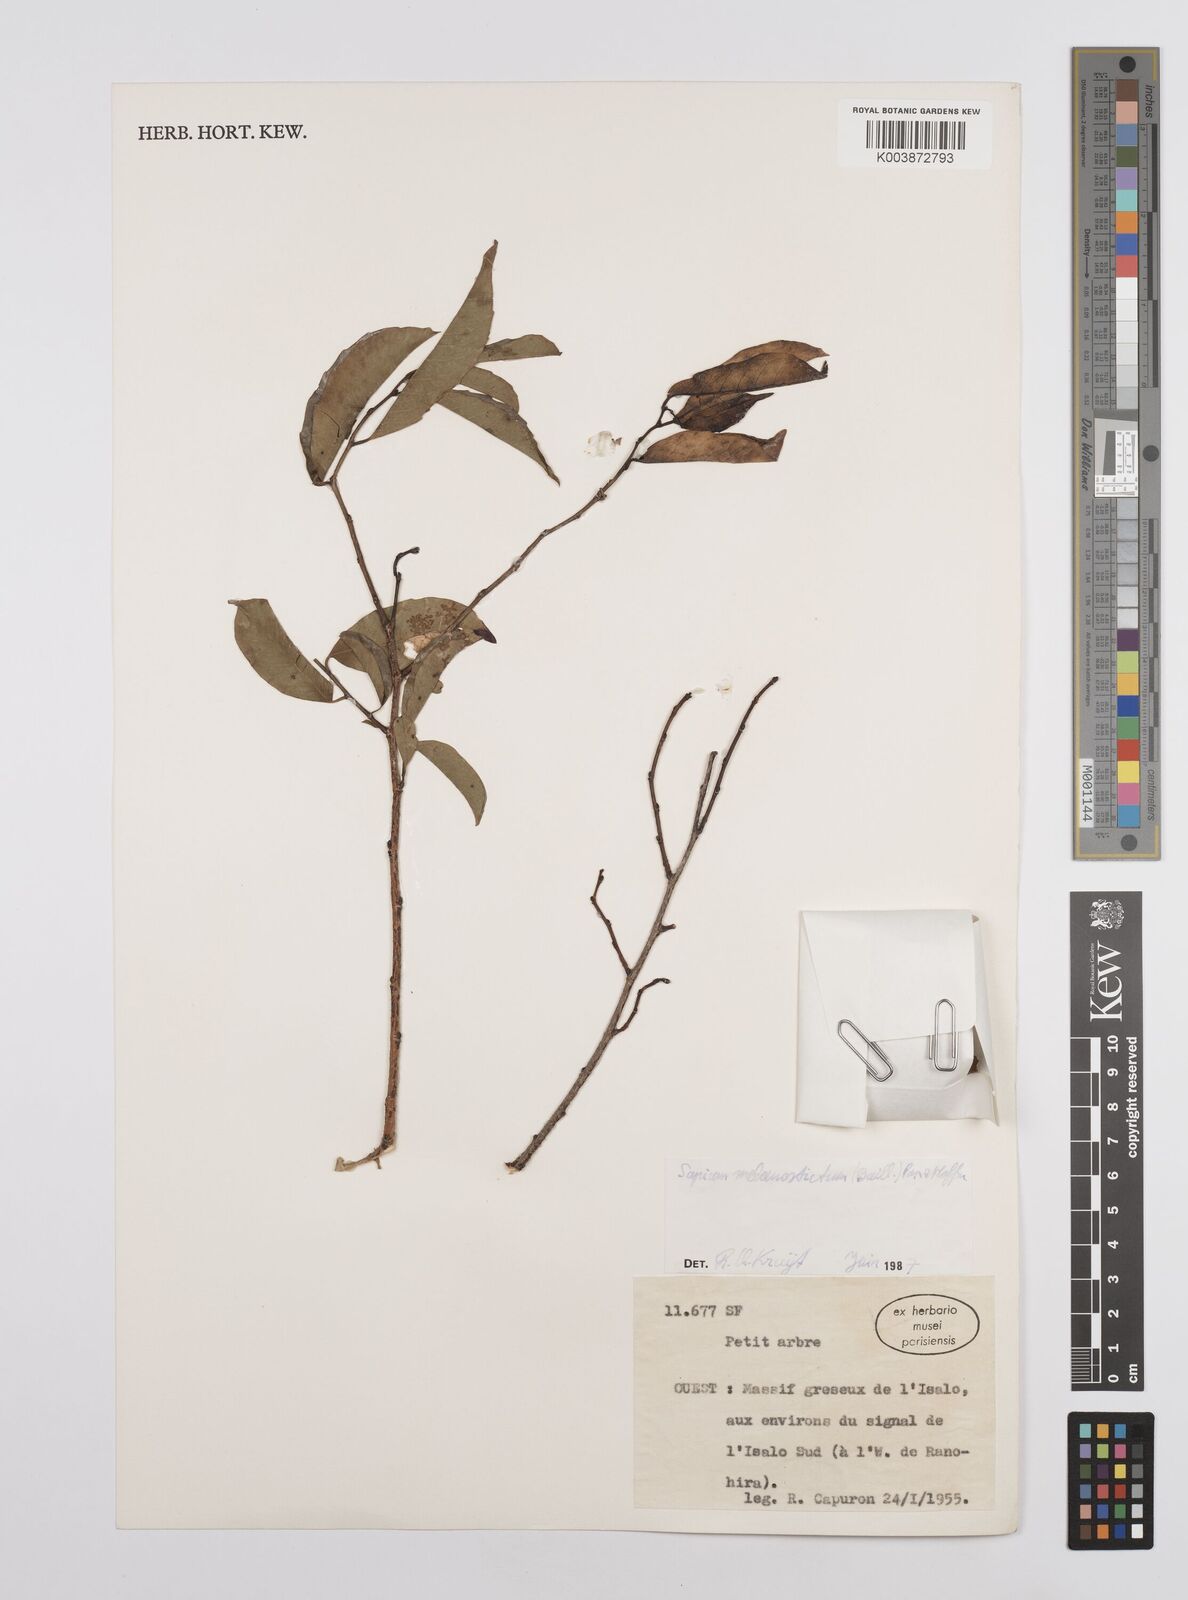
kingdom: Plantae
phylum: Tracheophyta
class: Magnoliopsida
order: Malpighiales
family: Euphorbiaceae
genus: Sclerocroton
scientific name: Sclerocroton melanostictus
